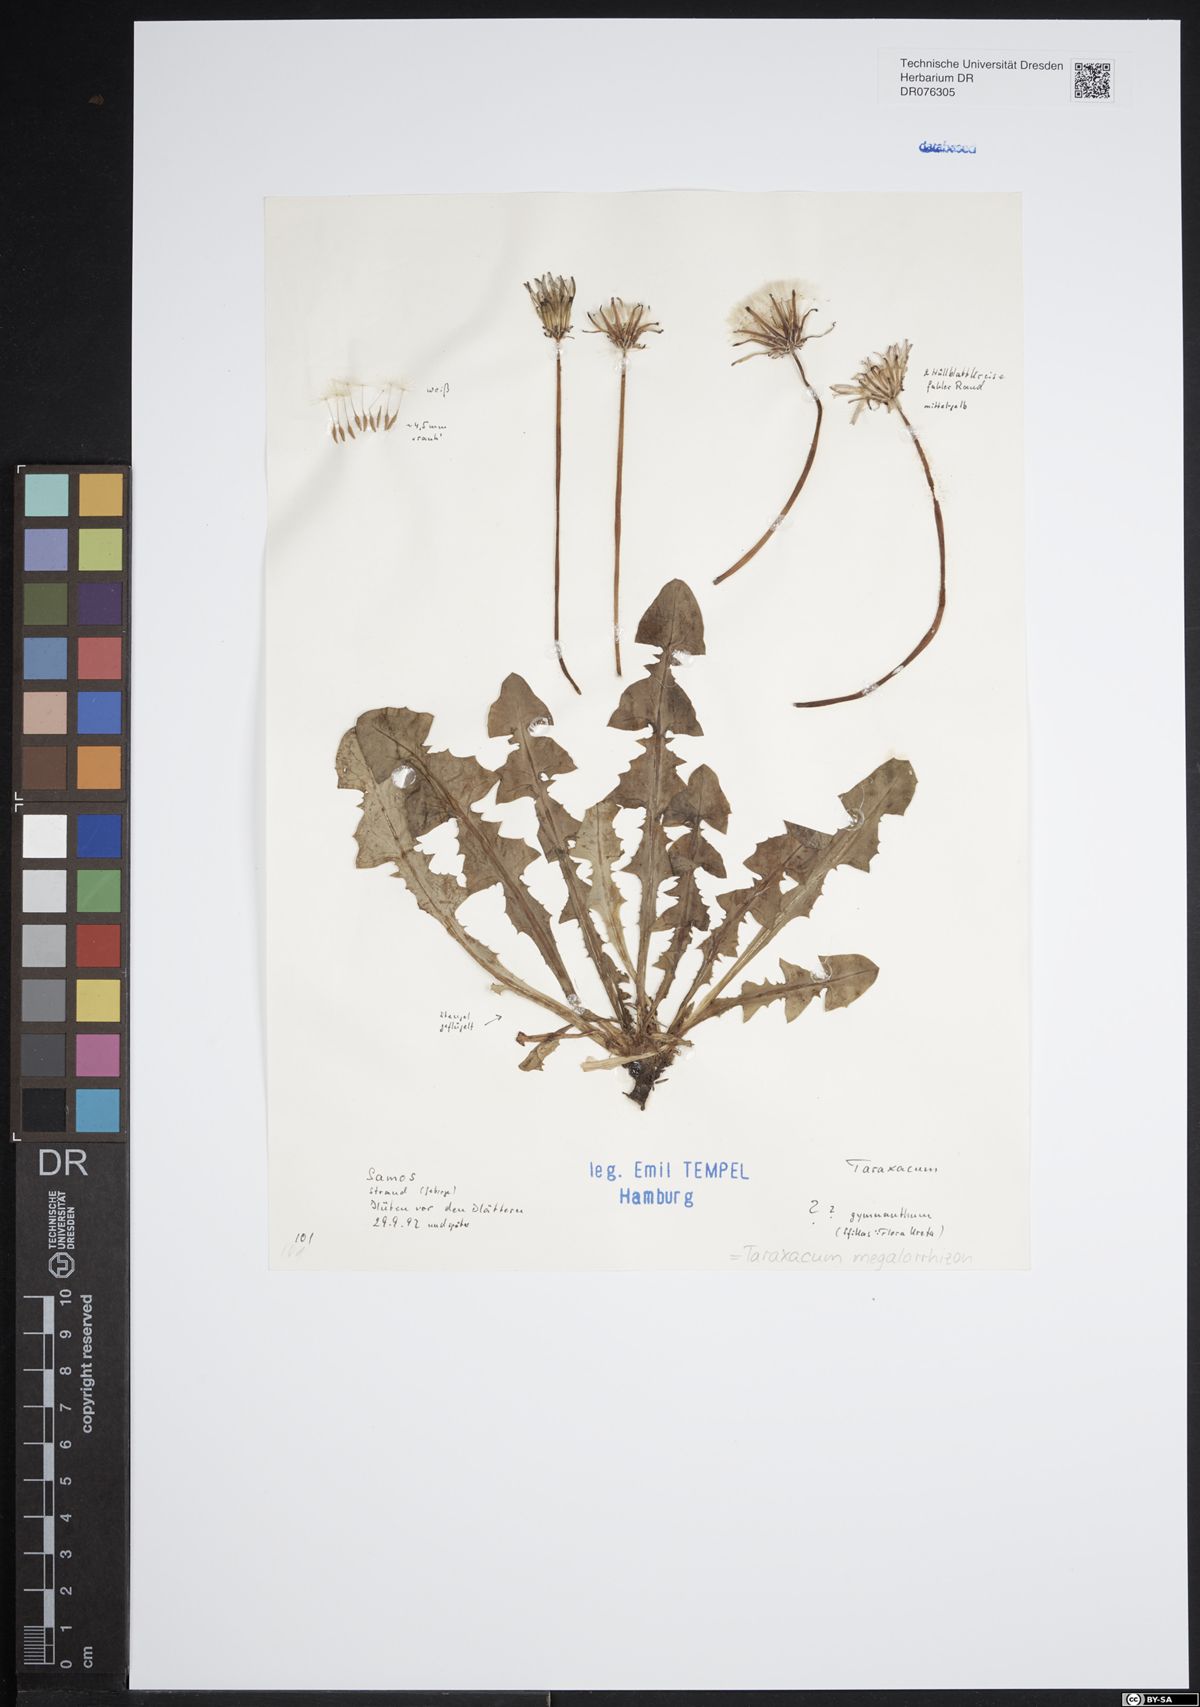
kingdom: Plantae
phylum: Tracheophyta
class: Magnoliopsida
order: Asterales
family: Asteraceae
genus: Taraxacum
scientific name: Taraxacum megalorhizon
